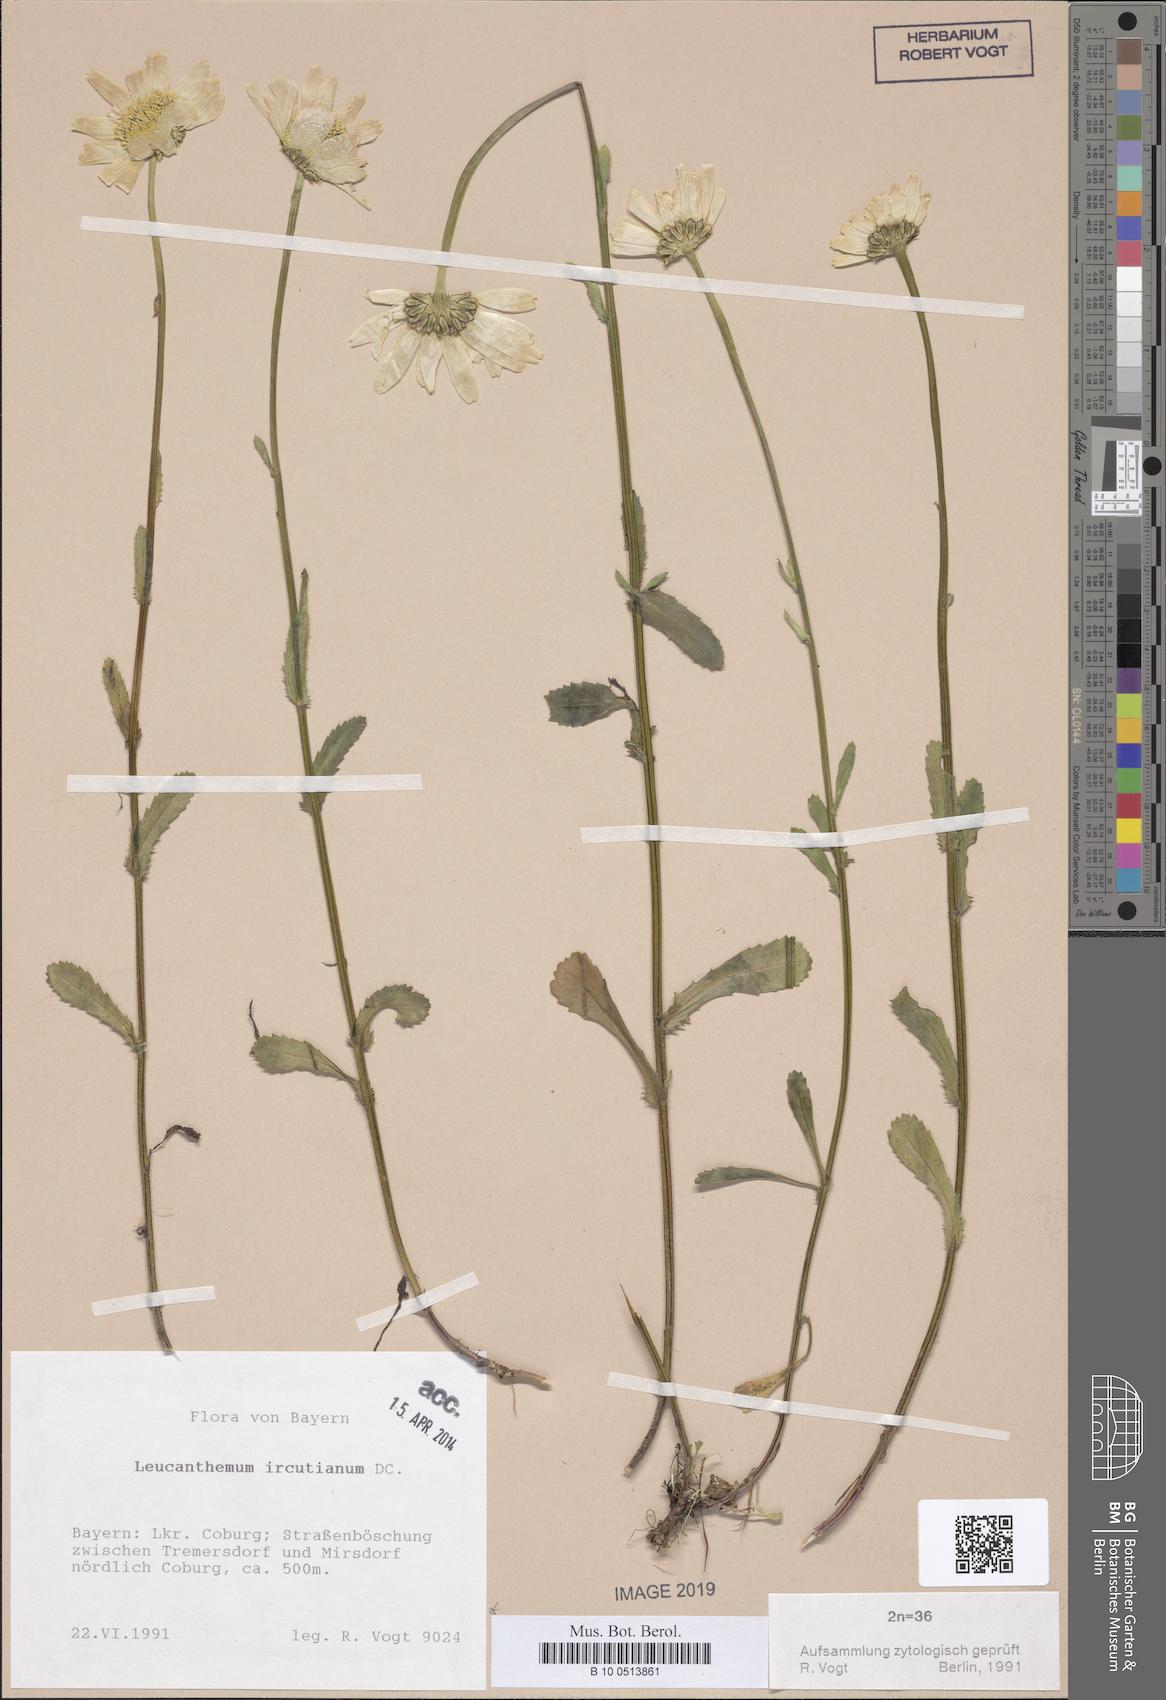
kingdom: Plantae
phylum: Tracheophyta
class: Magnoliopsida
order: Asterales
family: Asteraceae
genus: Leucanthemum
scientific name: Leucanthemum ircutianum
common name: Daisy
